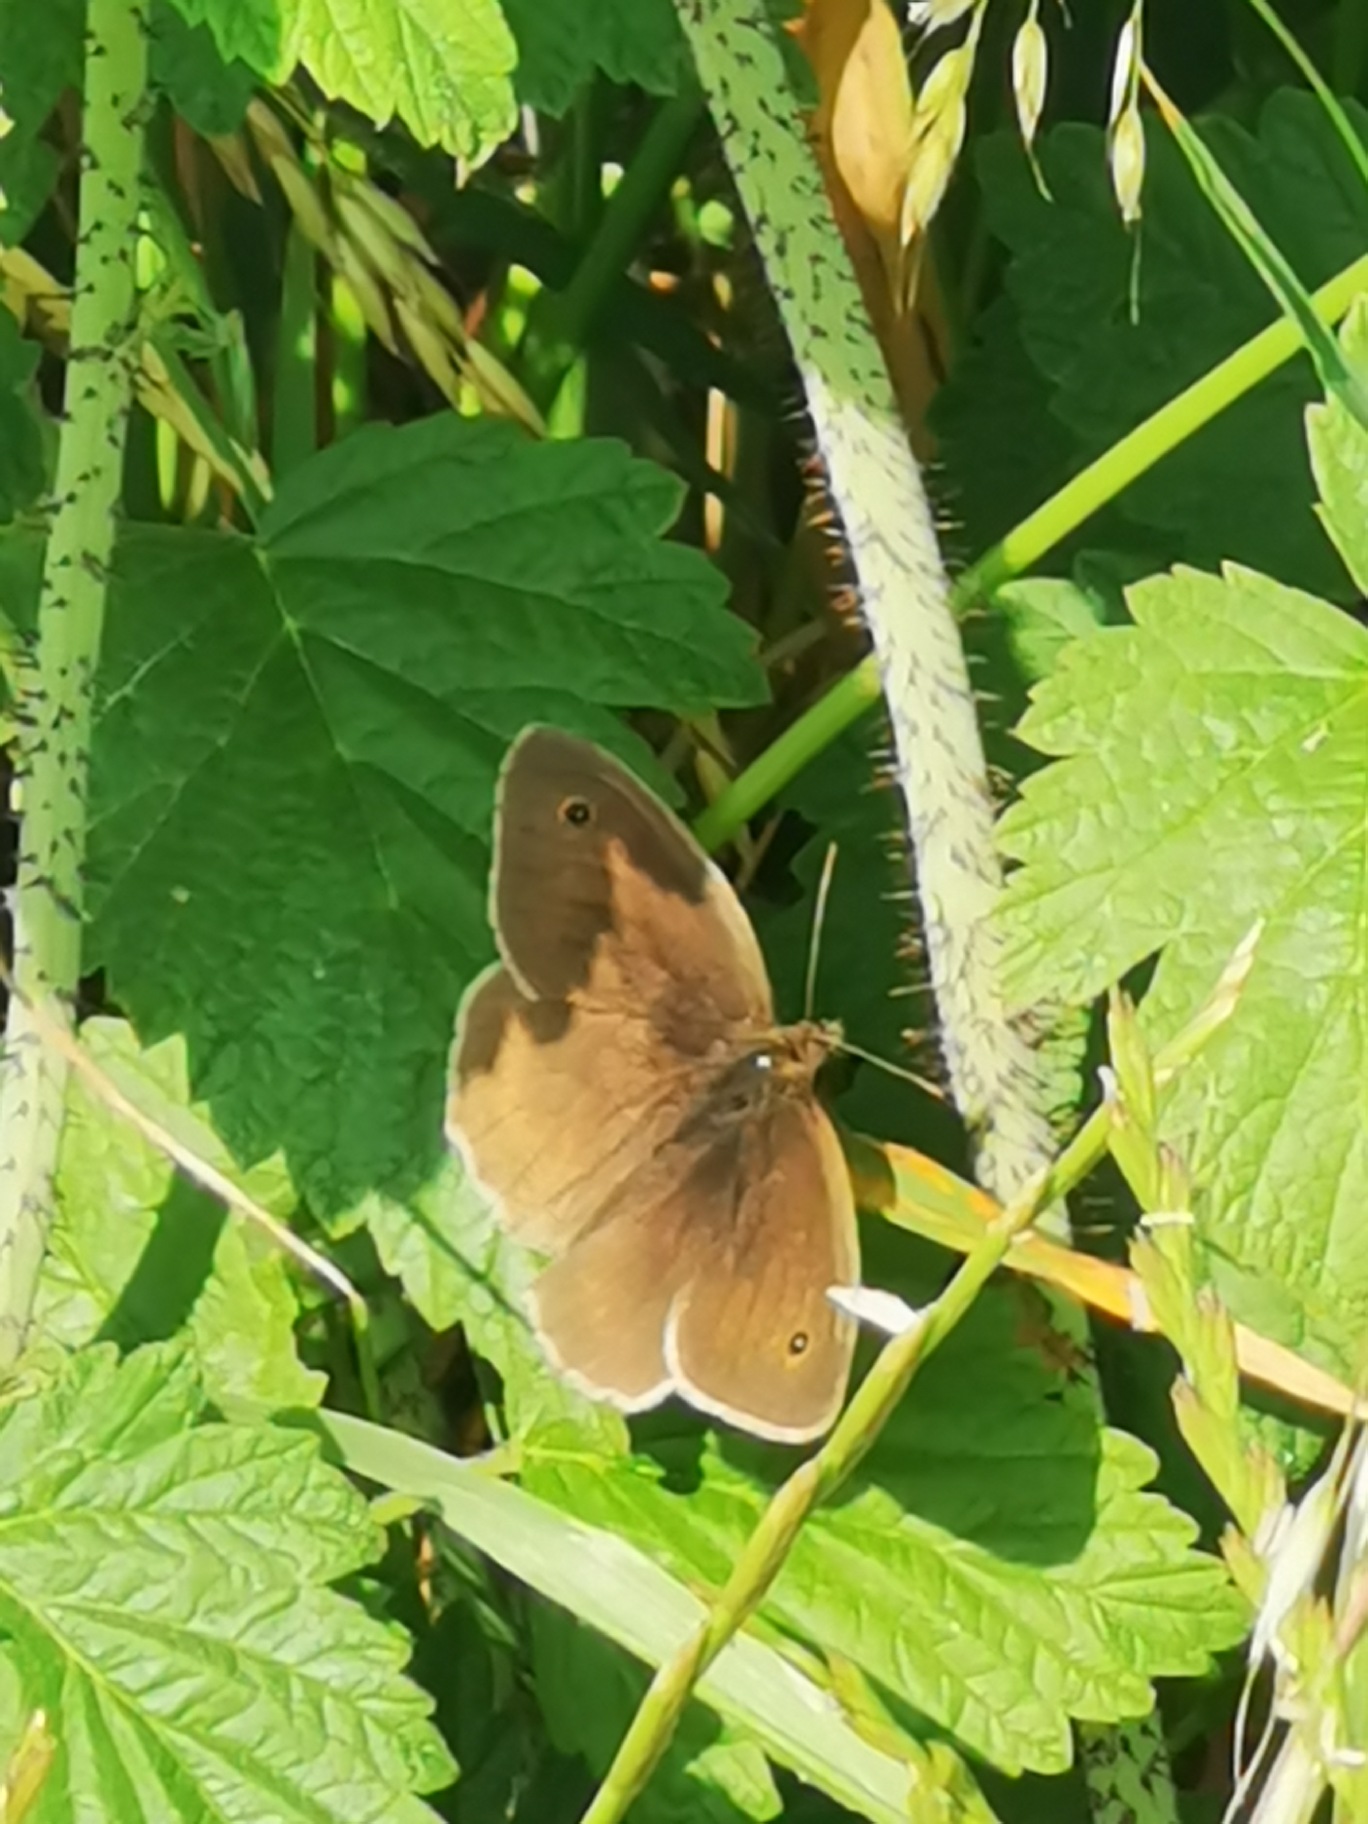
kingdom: Animalia
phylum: Arthropoda
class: Insecta
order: Lepidoptera
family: Nymphalidae
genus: Maniola
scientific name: Maniola jurtina
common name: Græsrandøje
